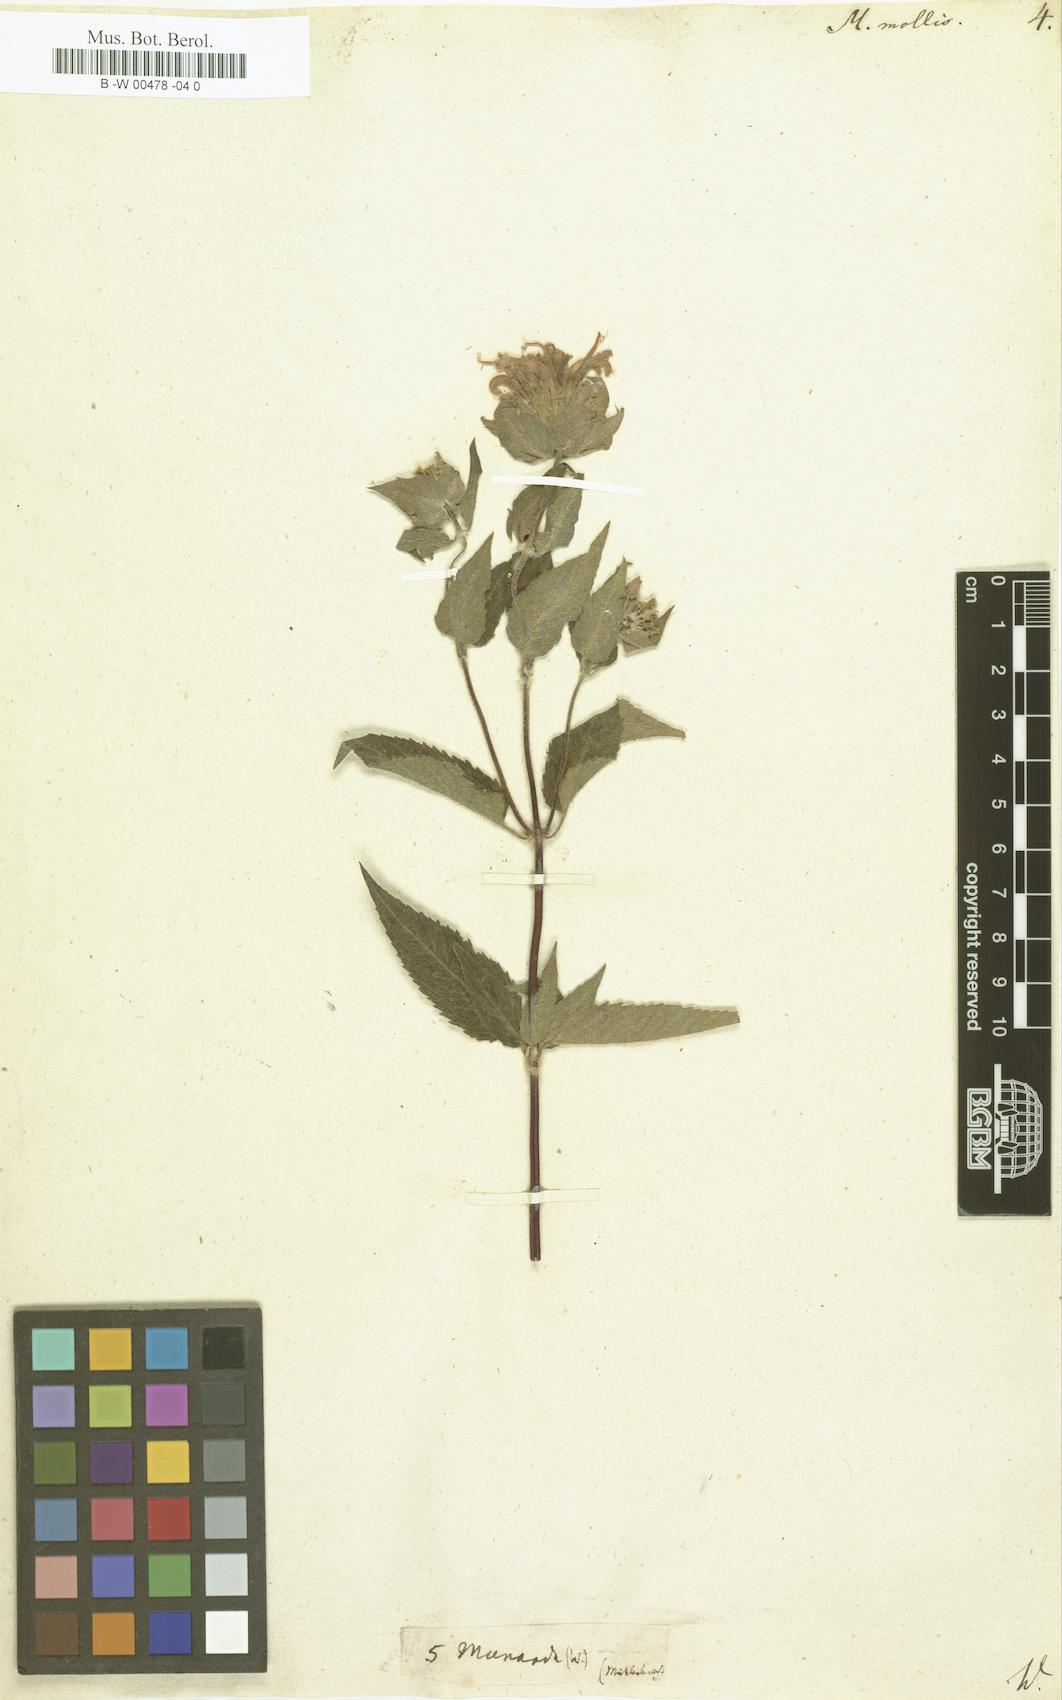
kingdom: Plantae
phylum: Tracheophyta
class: Magnoliopsida
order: Lamiales
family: Lamiaceae
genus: Monarda
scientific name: Monarda fistulosa
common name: Purple beebalm
